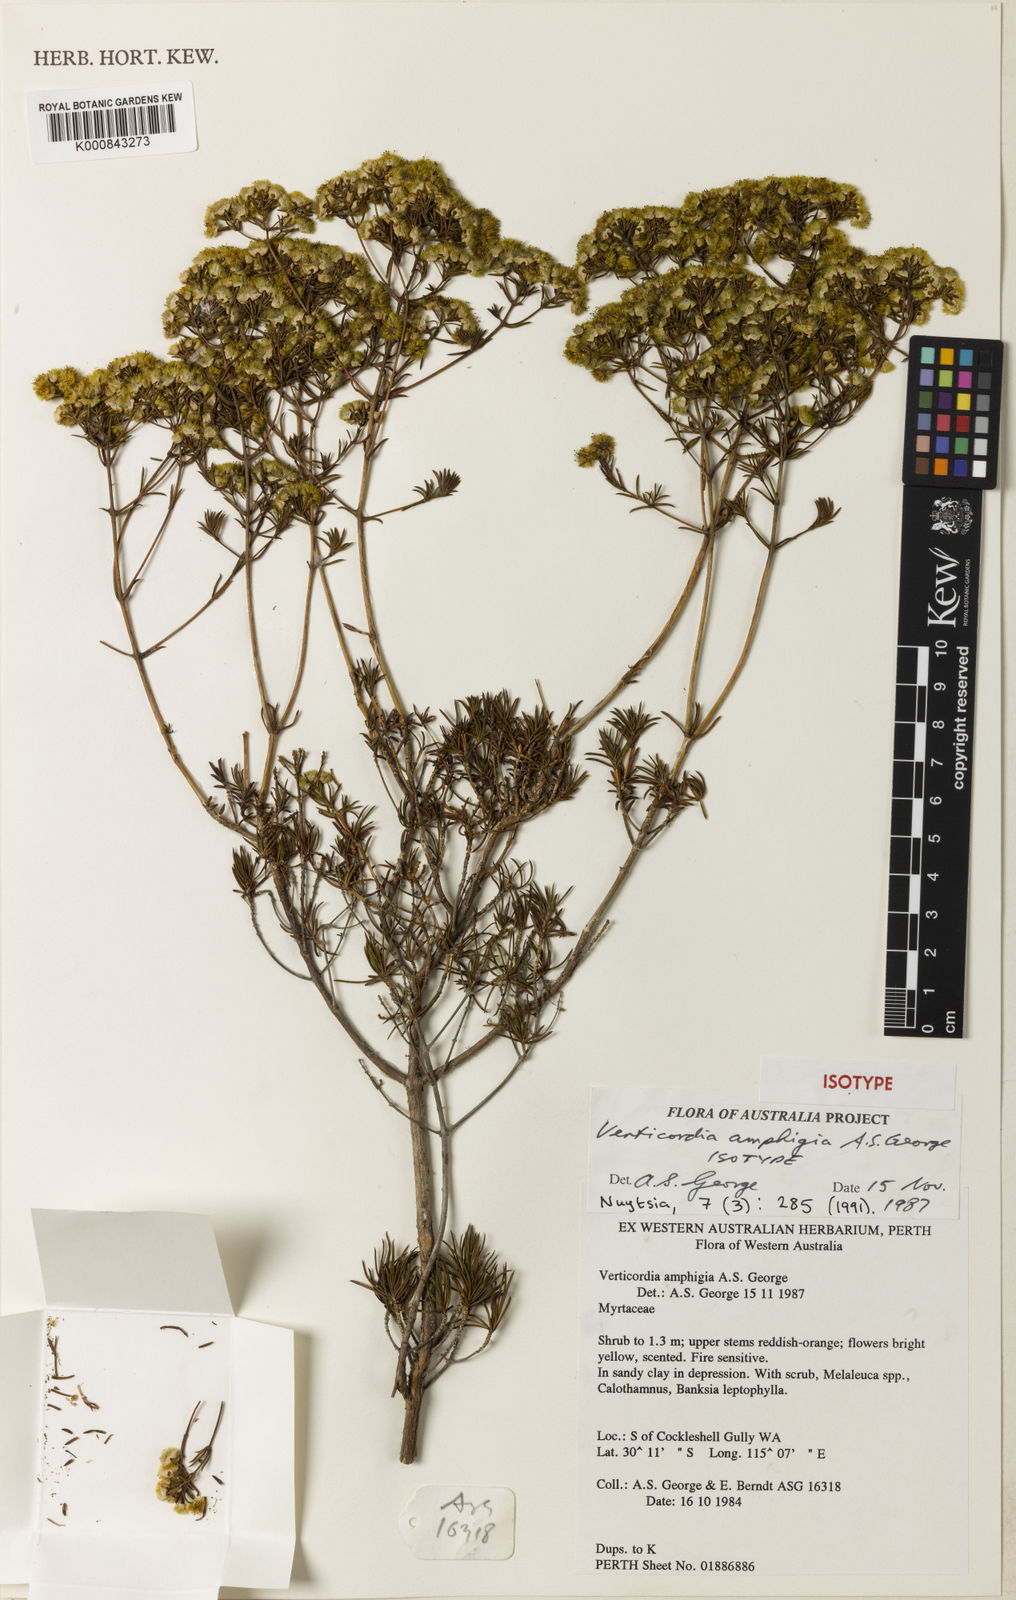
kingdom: Plantae
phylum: Tracheophyta
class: Magnoliopsida
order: Myrtales
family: Myrtaceae
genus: Verticordia
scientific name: Verticordia amphigia
